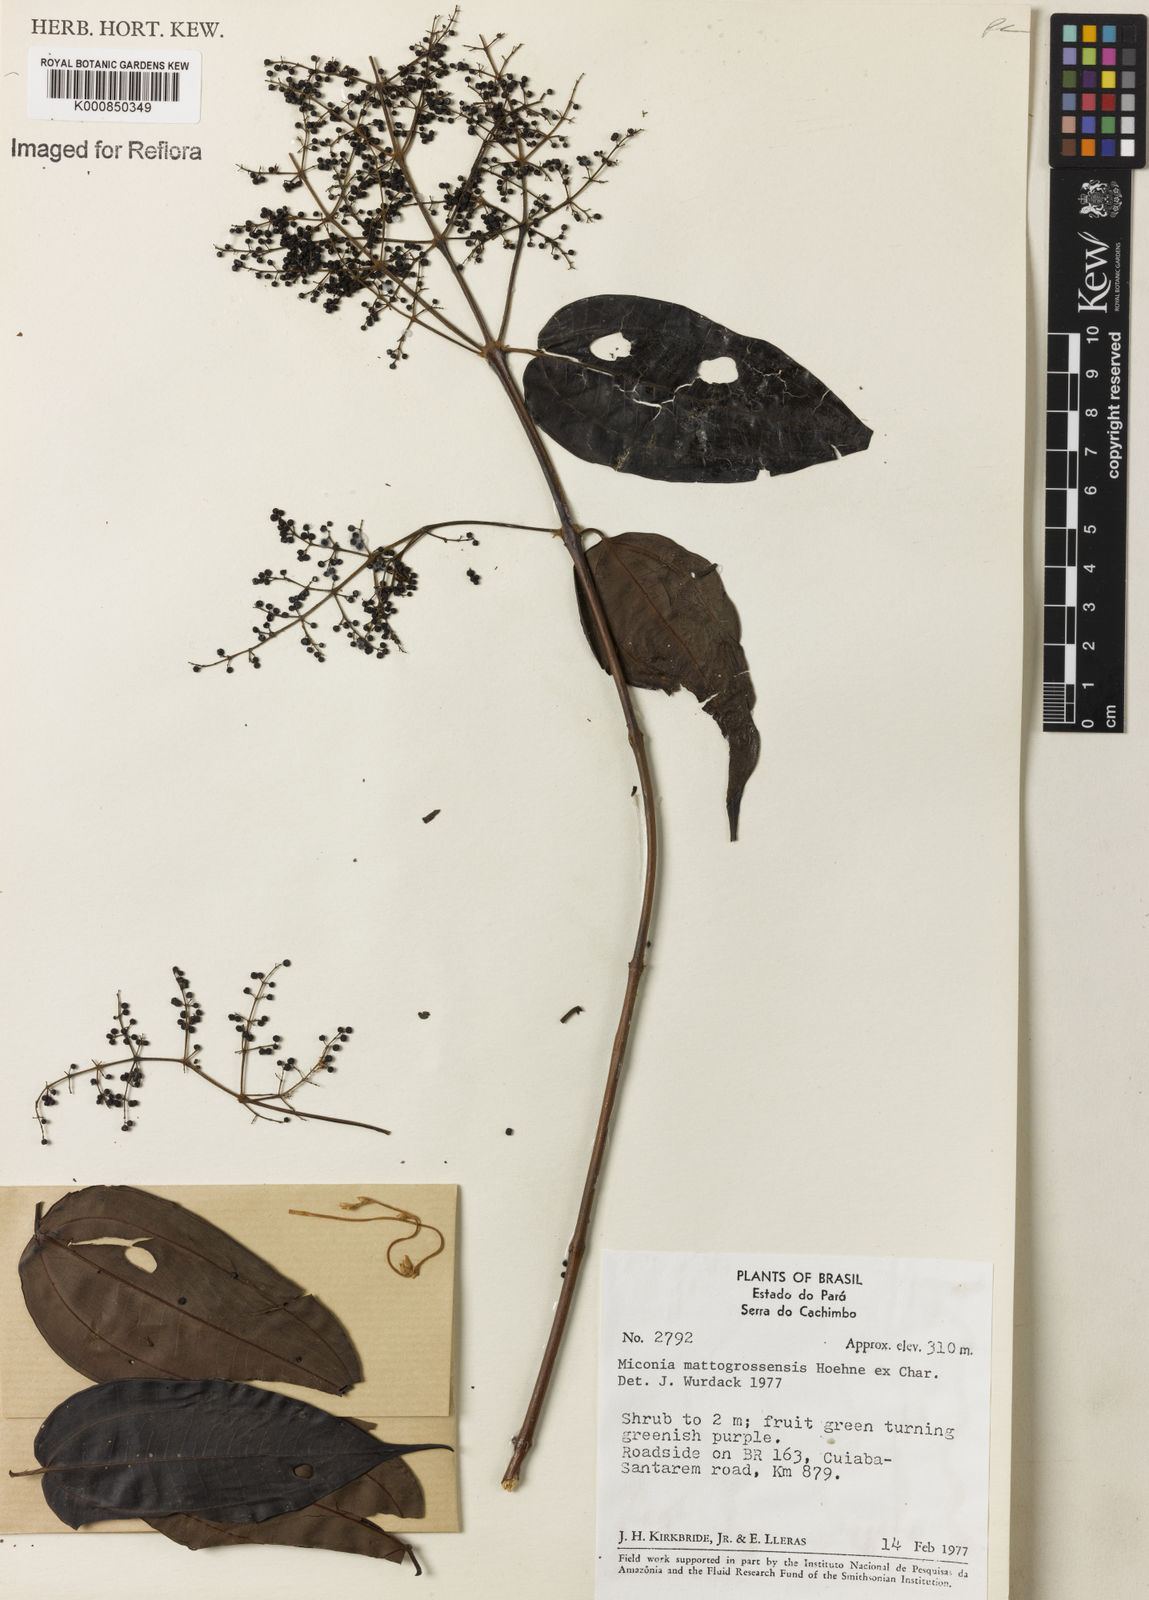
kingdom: Plantae
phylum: Tracheophyta
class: Magnoliopsida
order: Myrtales
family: Melastomataceae
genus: Miconia
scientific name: Miconia mattogrossensis
